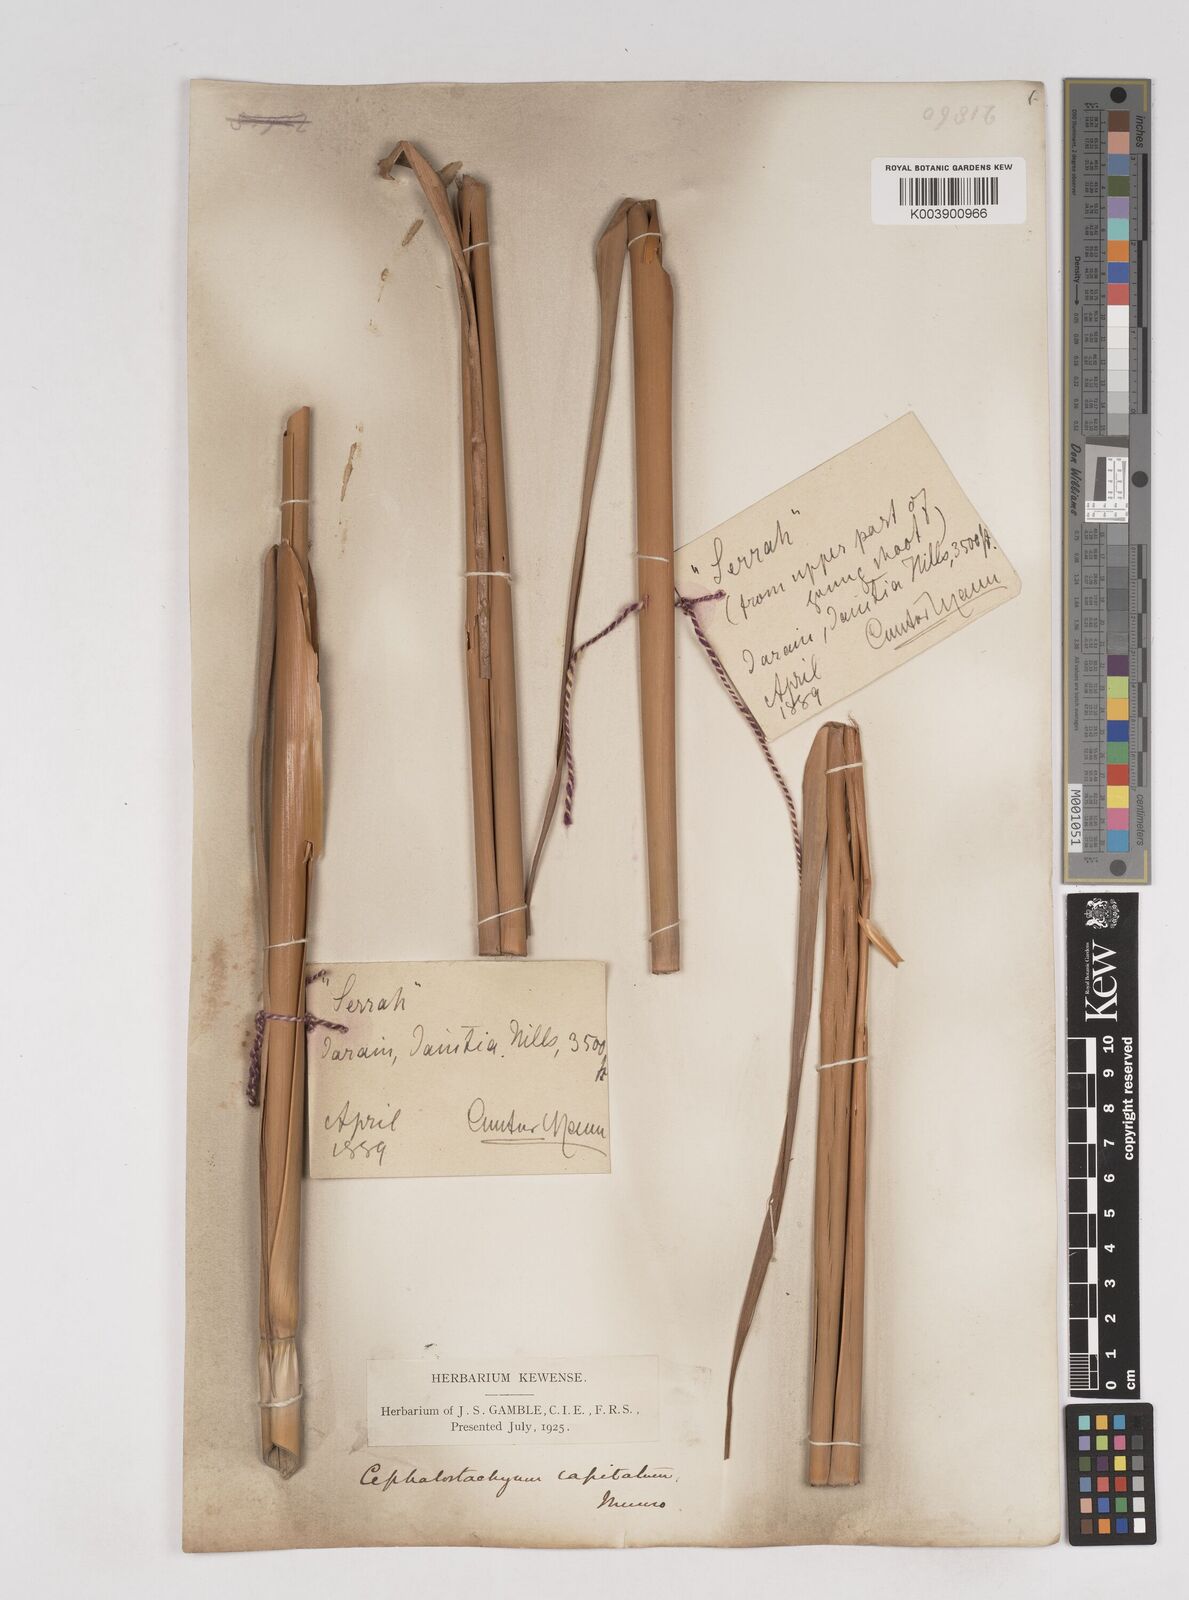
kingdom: Plantae
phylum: Tracheophyta
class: Liliopsida
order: Poales
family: Poaceae
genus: Cephalostachyum
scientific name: Cephalostachyum capitatum
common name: Hollow bamboo
